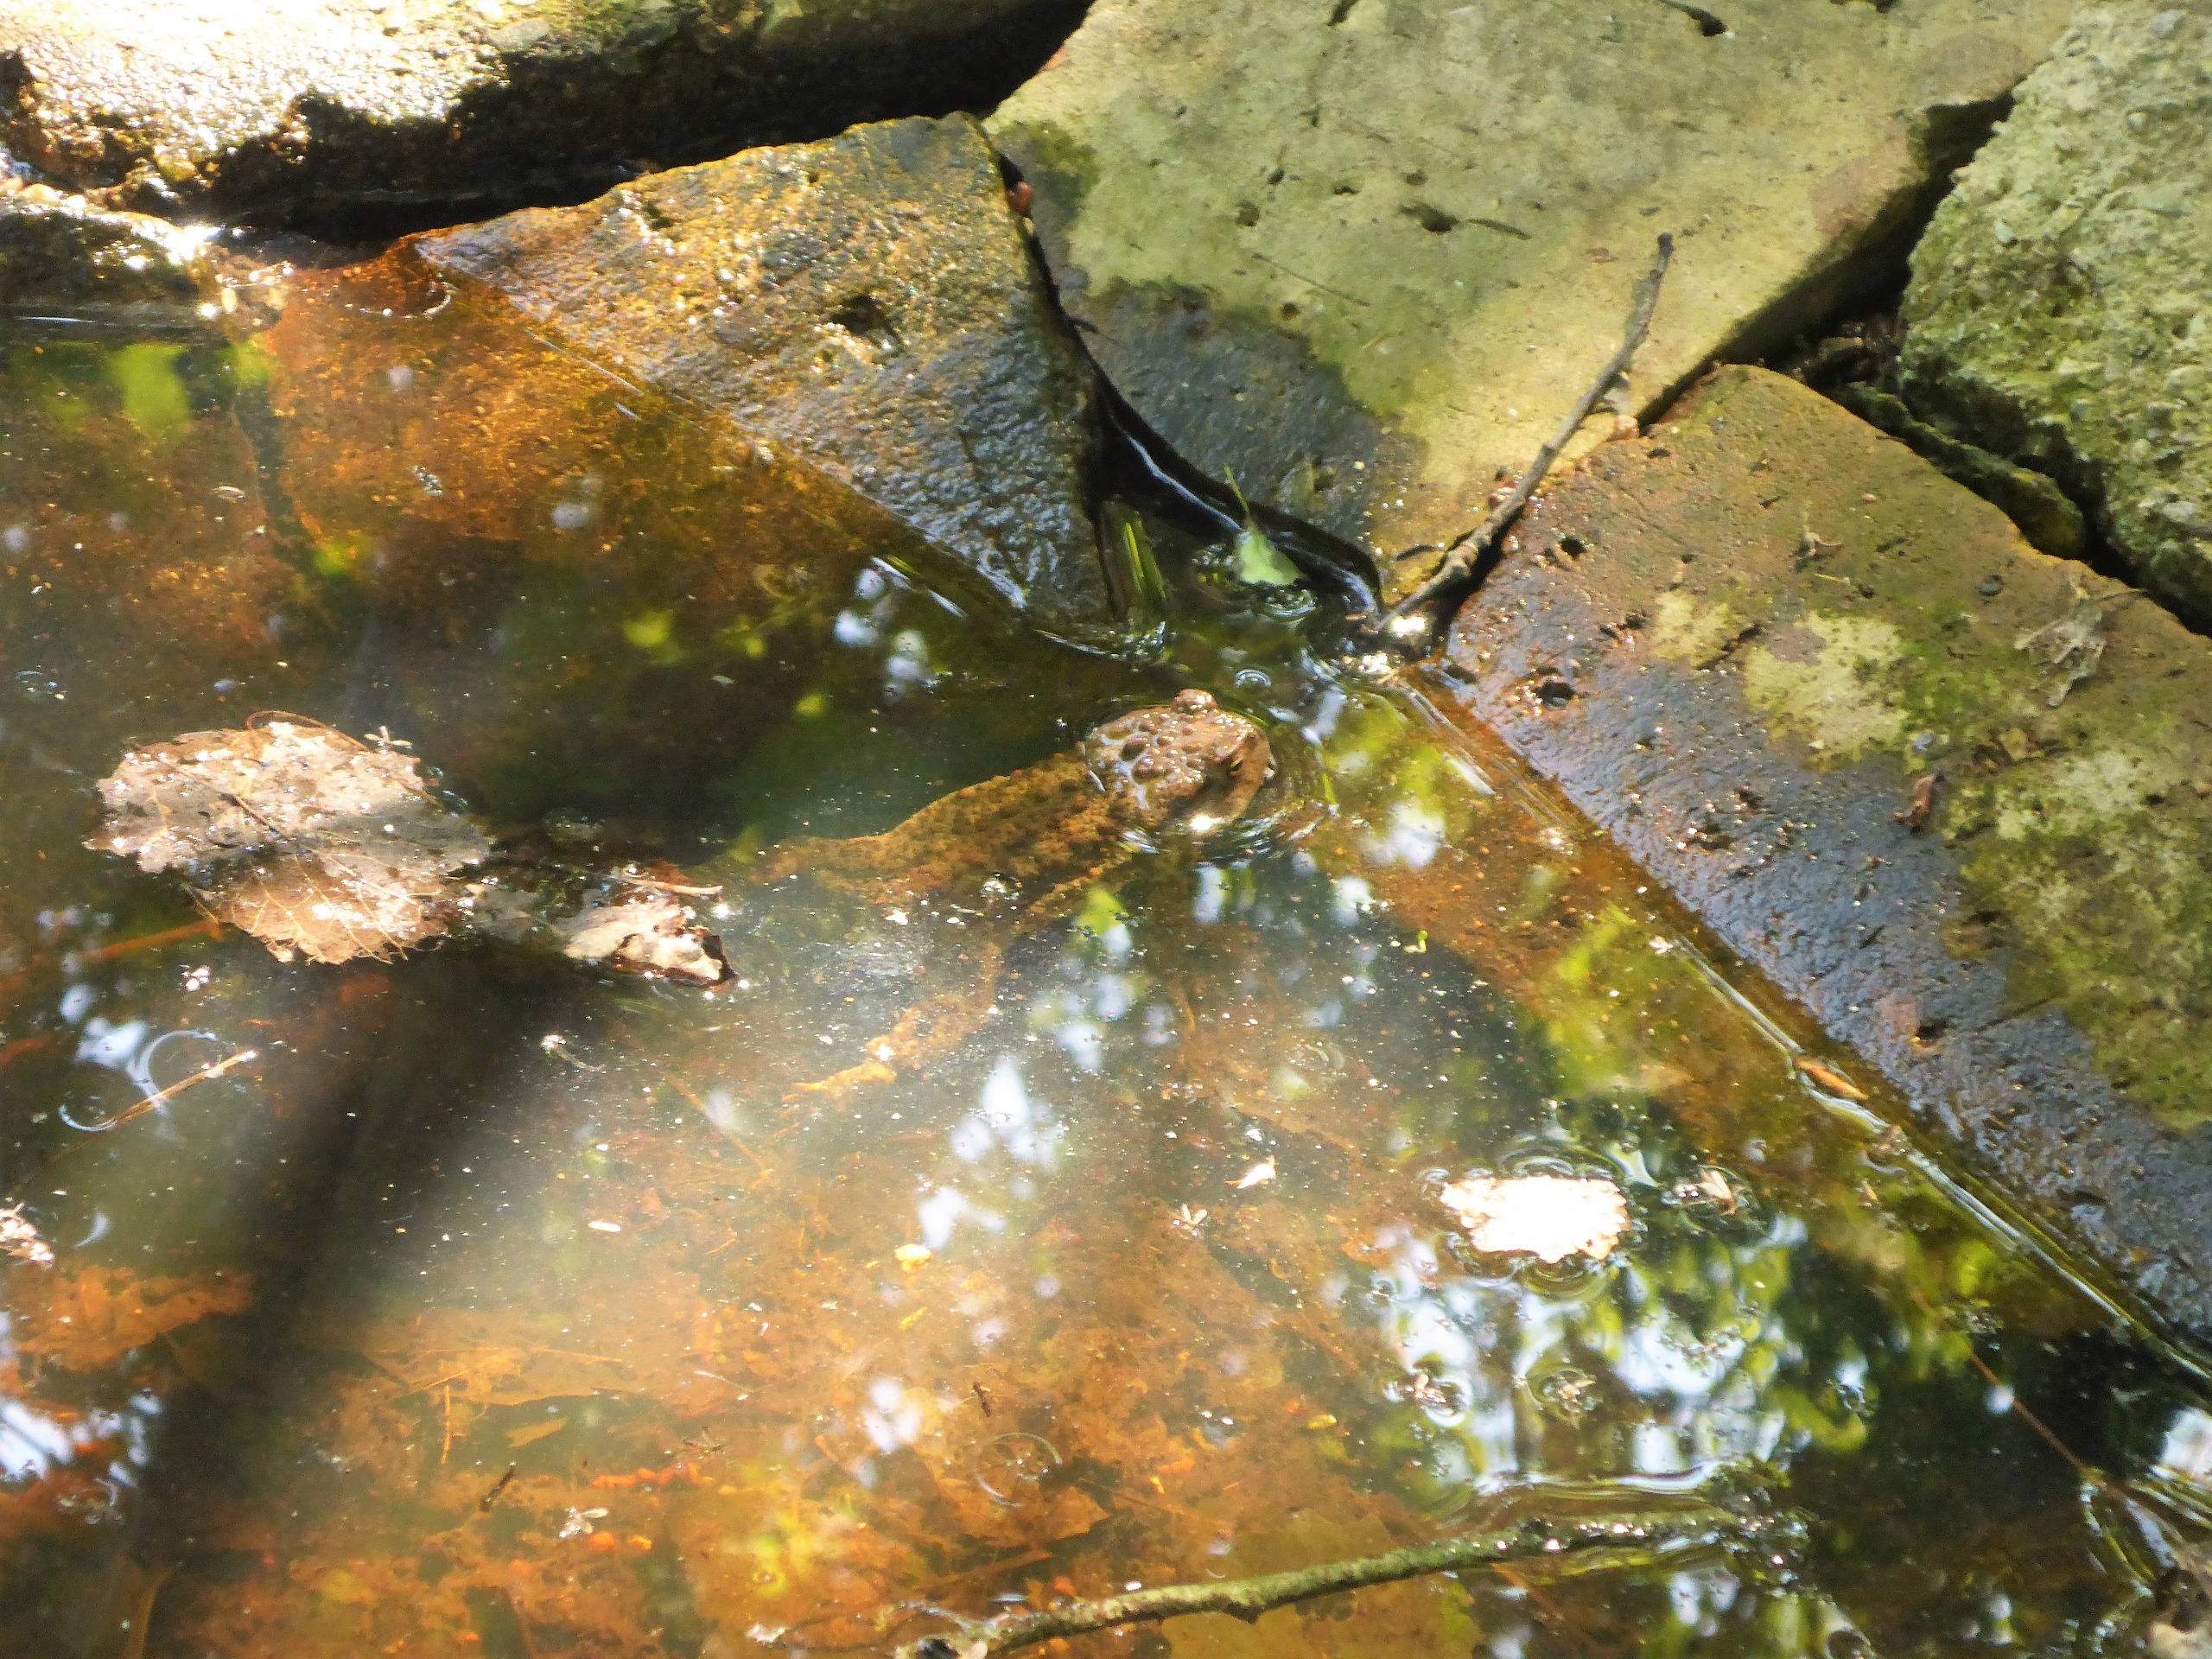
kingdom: Animalia
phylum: Chordata
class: Amphibia
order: Anura
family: Bufonidae
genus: Bufo
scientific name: Bufo bufo
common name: Skrubtudse
